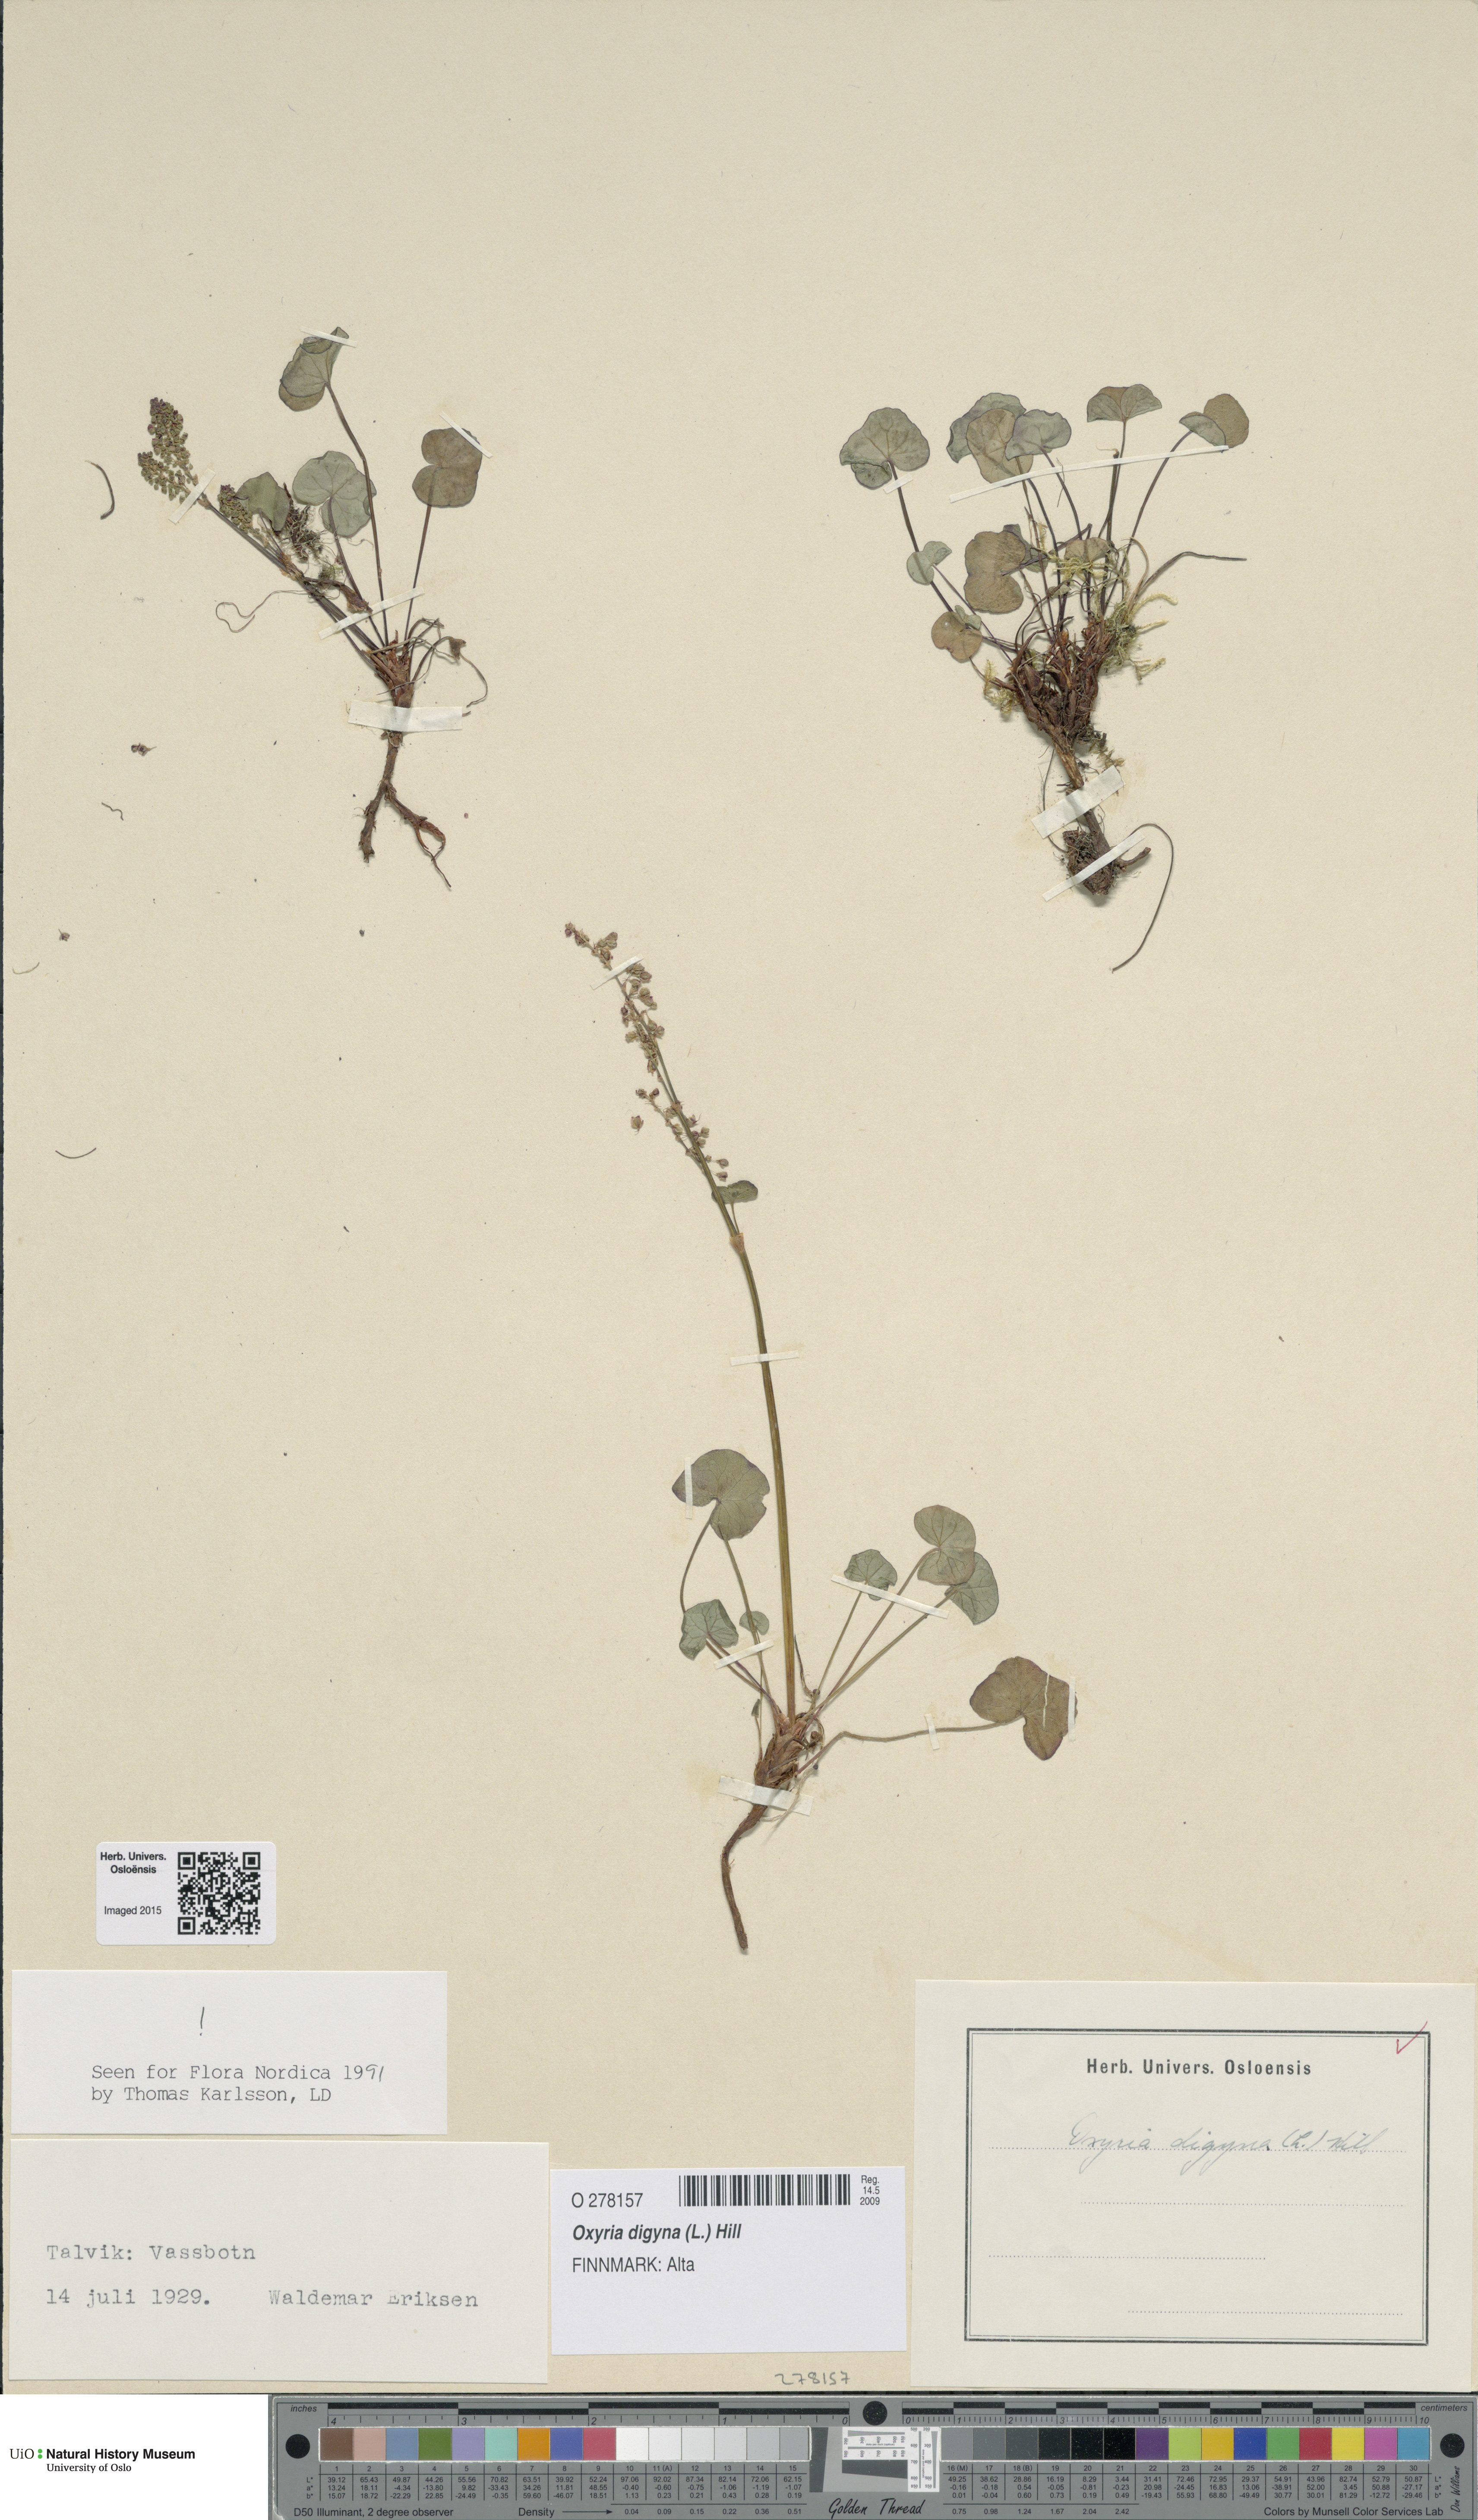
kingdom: Plantae
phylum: Tracheophyta
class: Magnoliopsida
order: Caryophyllales
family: Polygonaceae
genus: Oxyria
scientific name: Oxyria digyna
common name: Alpine mountain-sorrel
